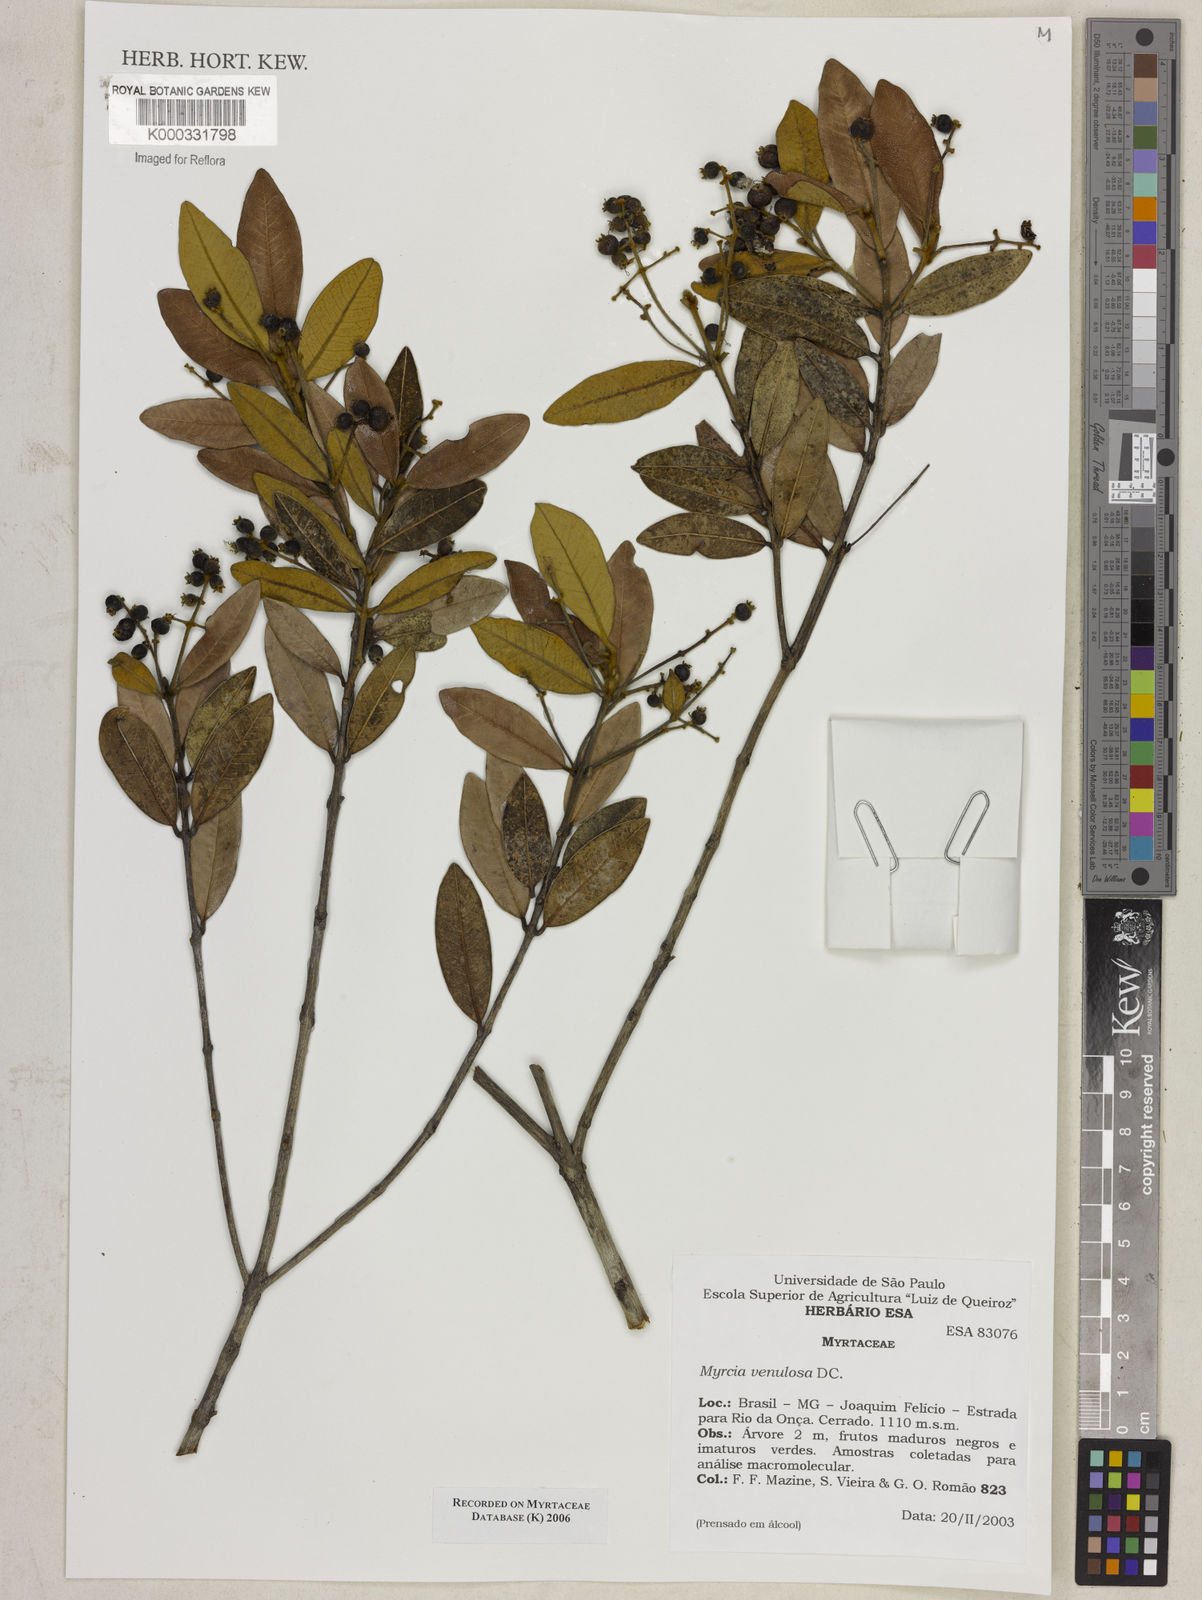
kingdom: Plantae
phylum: Tracheophyta
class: Magnoliopsida
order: Myrtales
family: Myrtaceae
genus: Myrcia
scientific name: Myrcia venulosa
